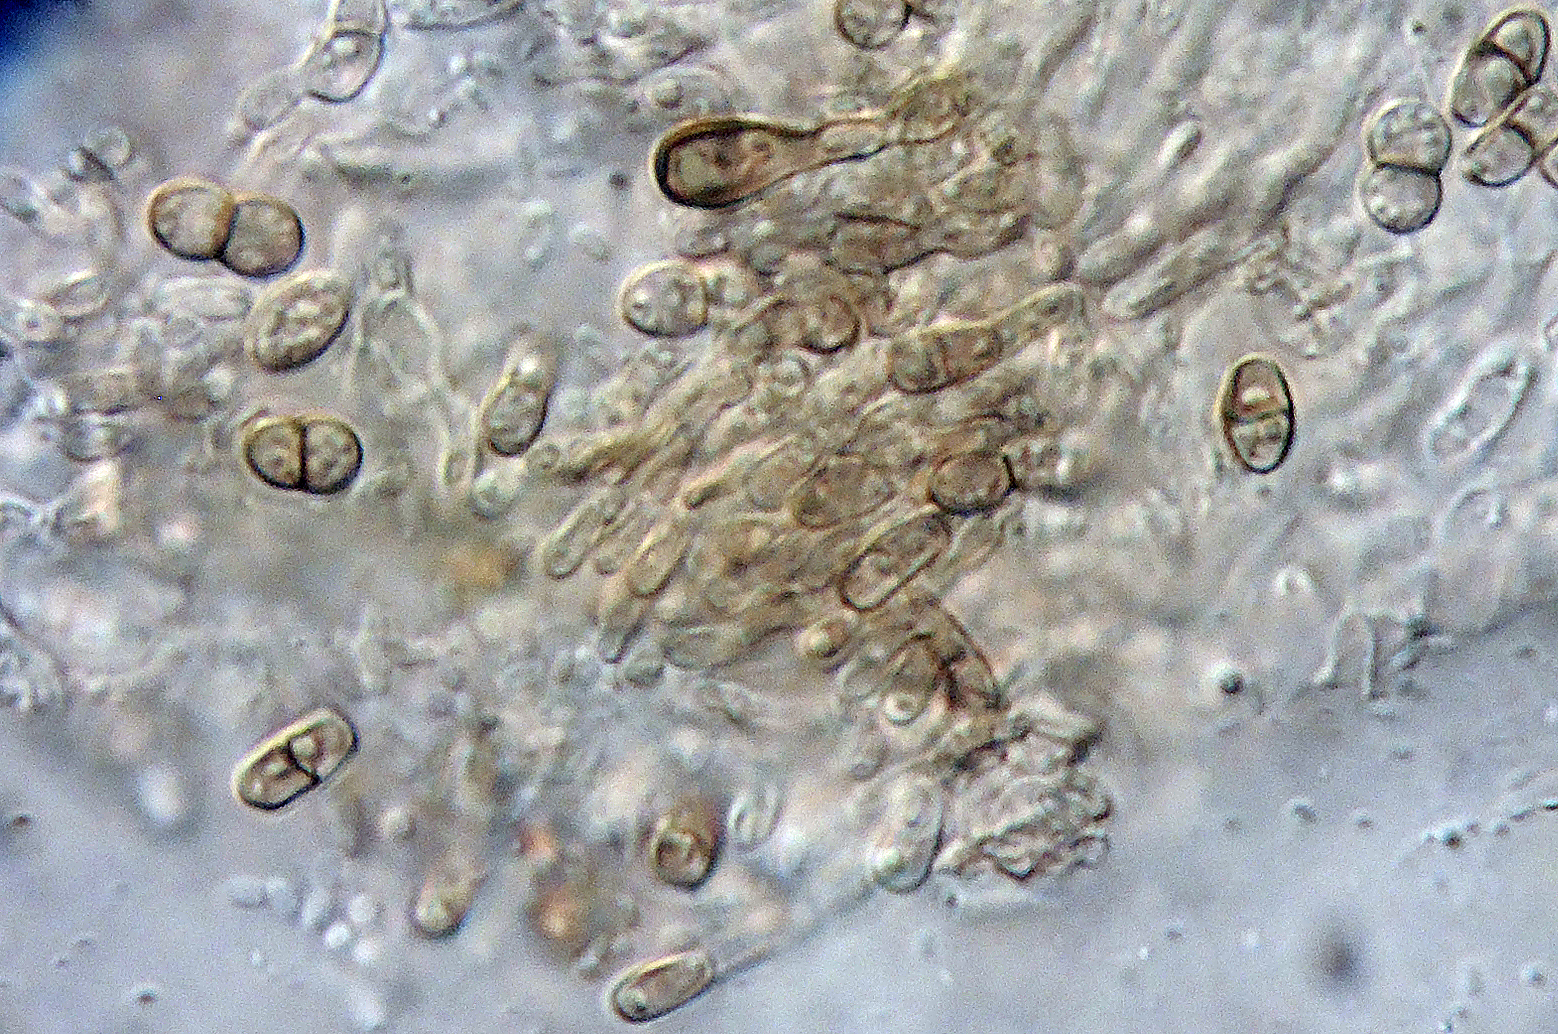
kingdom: Fungi
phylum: Ascomycota
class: Eurotiomycetes
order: Chaetothyriales
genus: Lichenodiplis
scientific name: Lichenodiplis lecanorae
